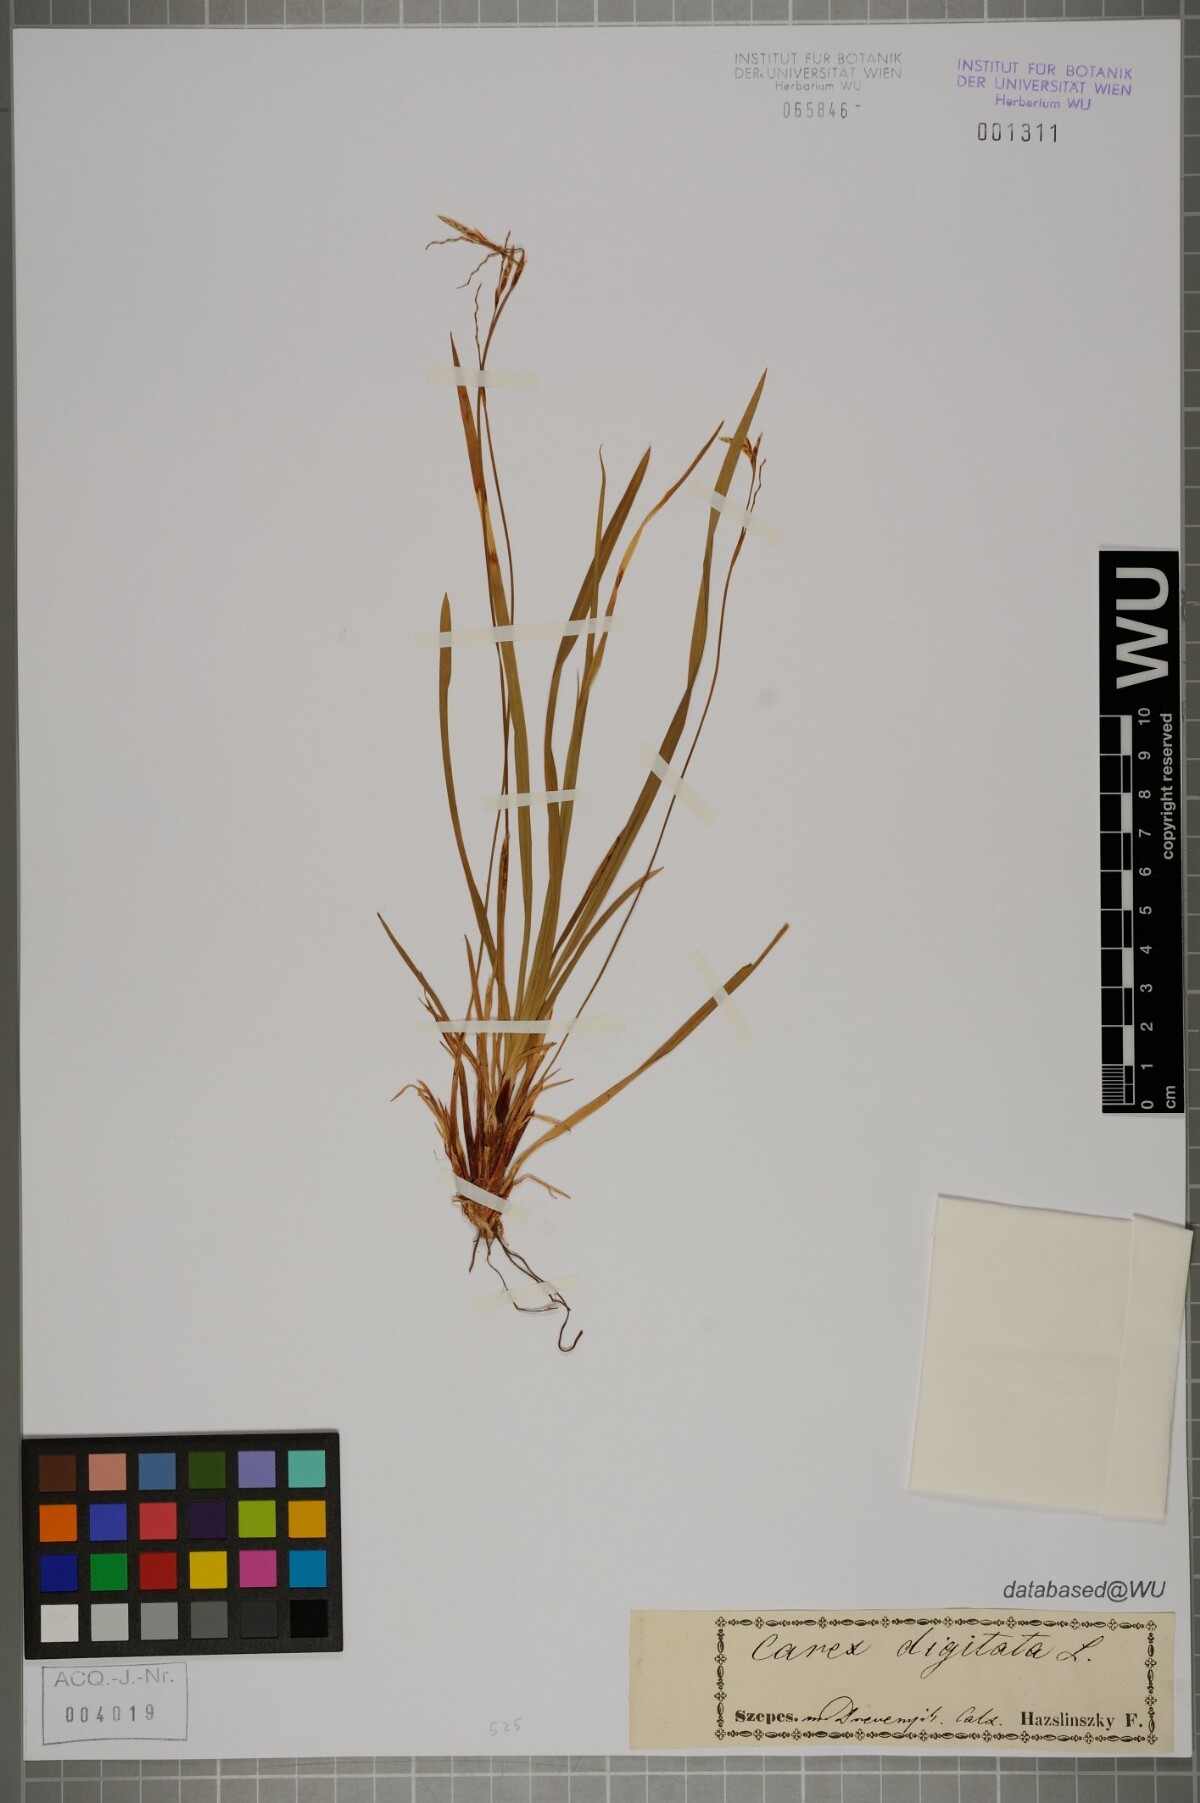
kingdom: Plantae
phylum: Tracheophyta
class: Liliopsida
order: Poales
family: Cyperaceae
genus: Carex
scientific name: Carex digitata
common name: Fingered sedge
